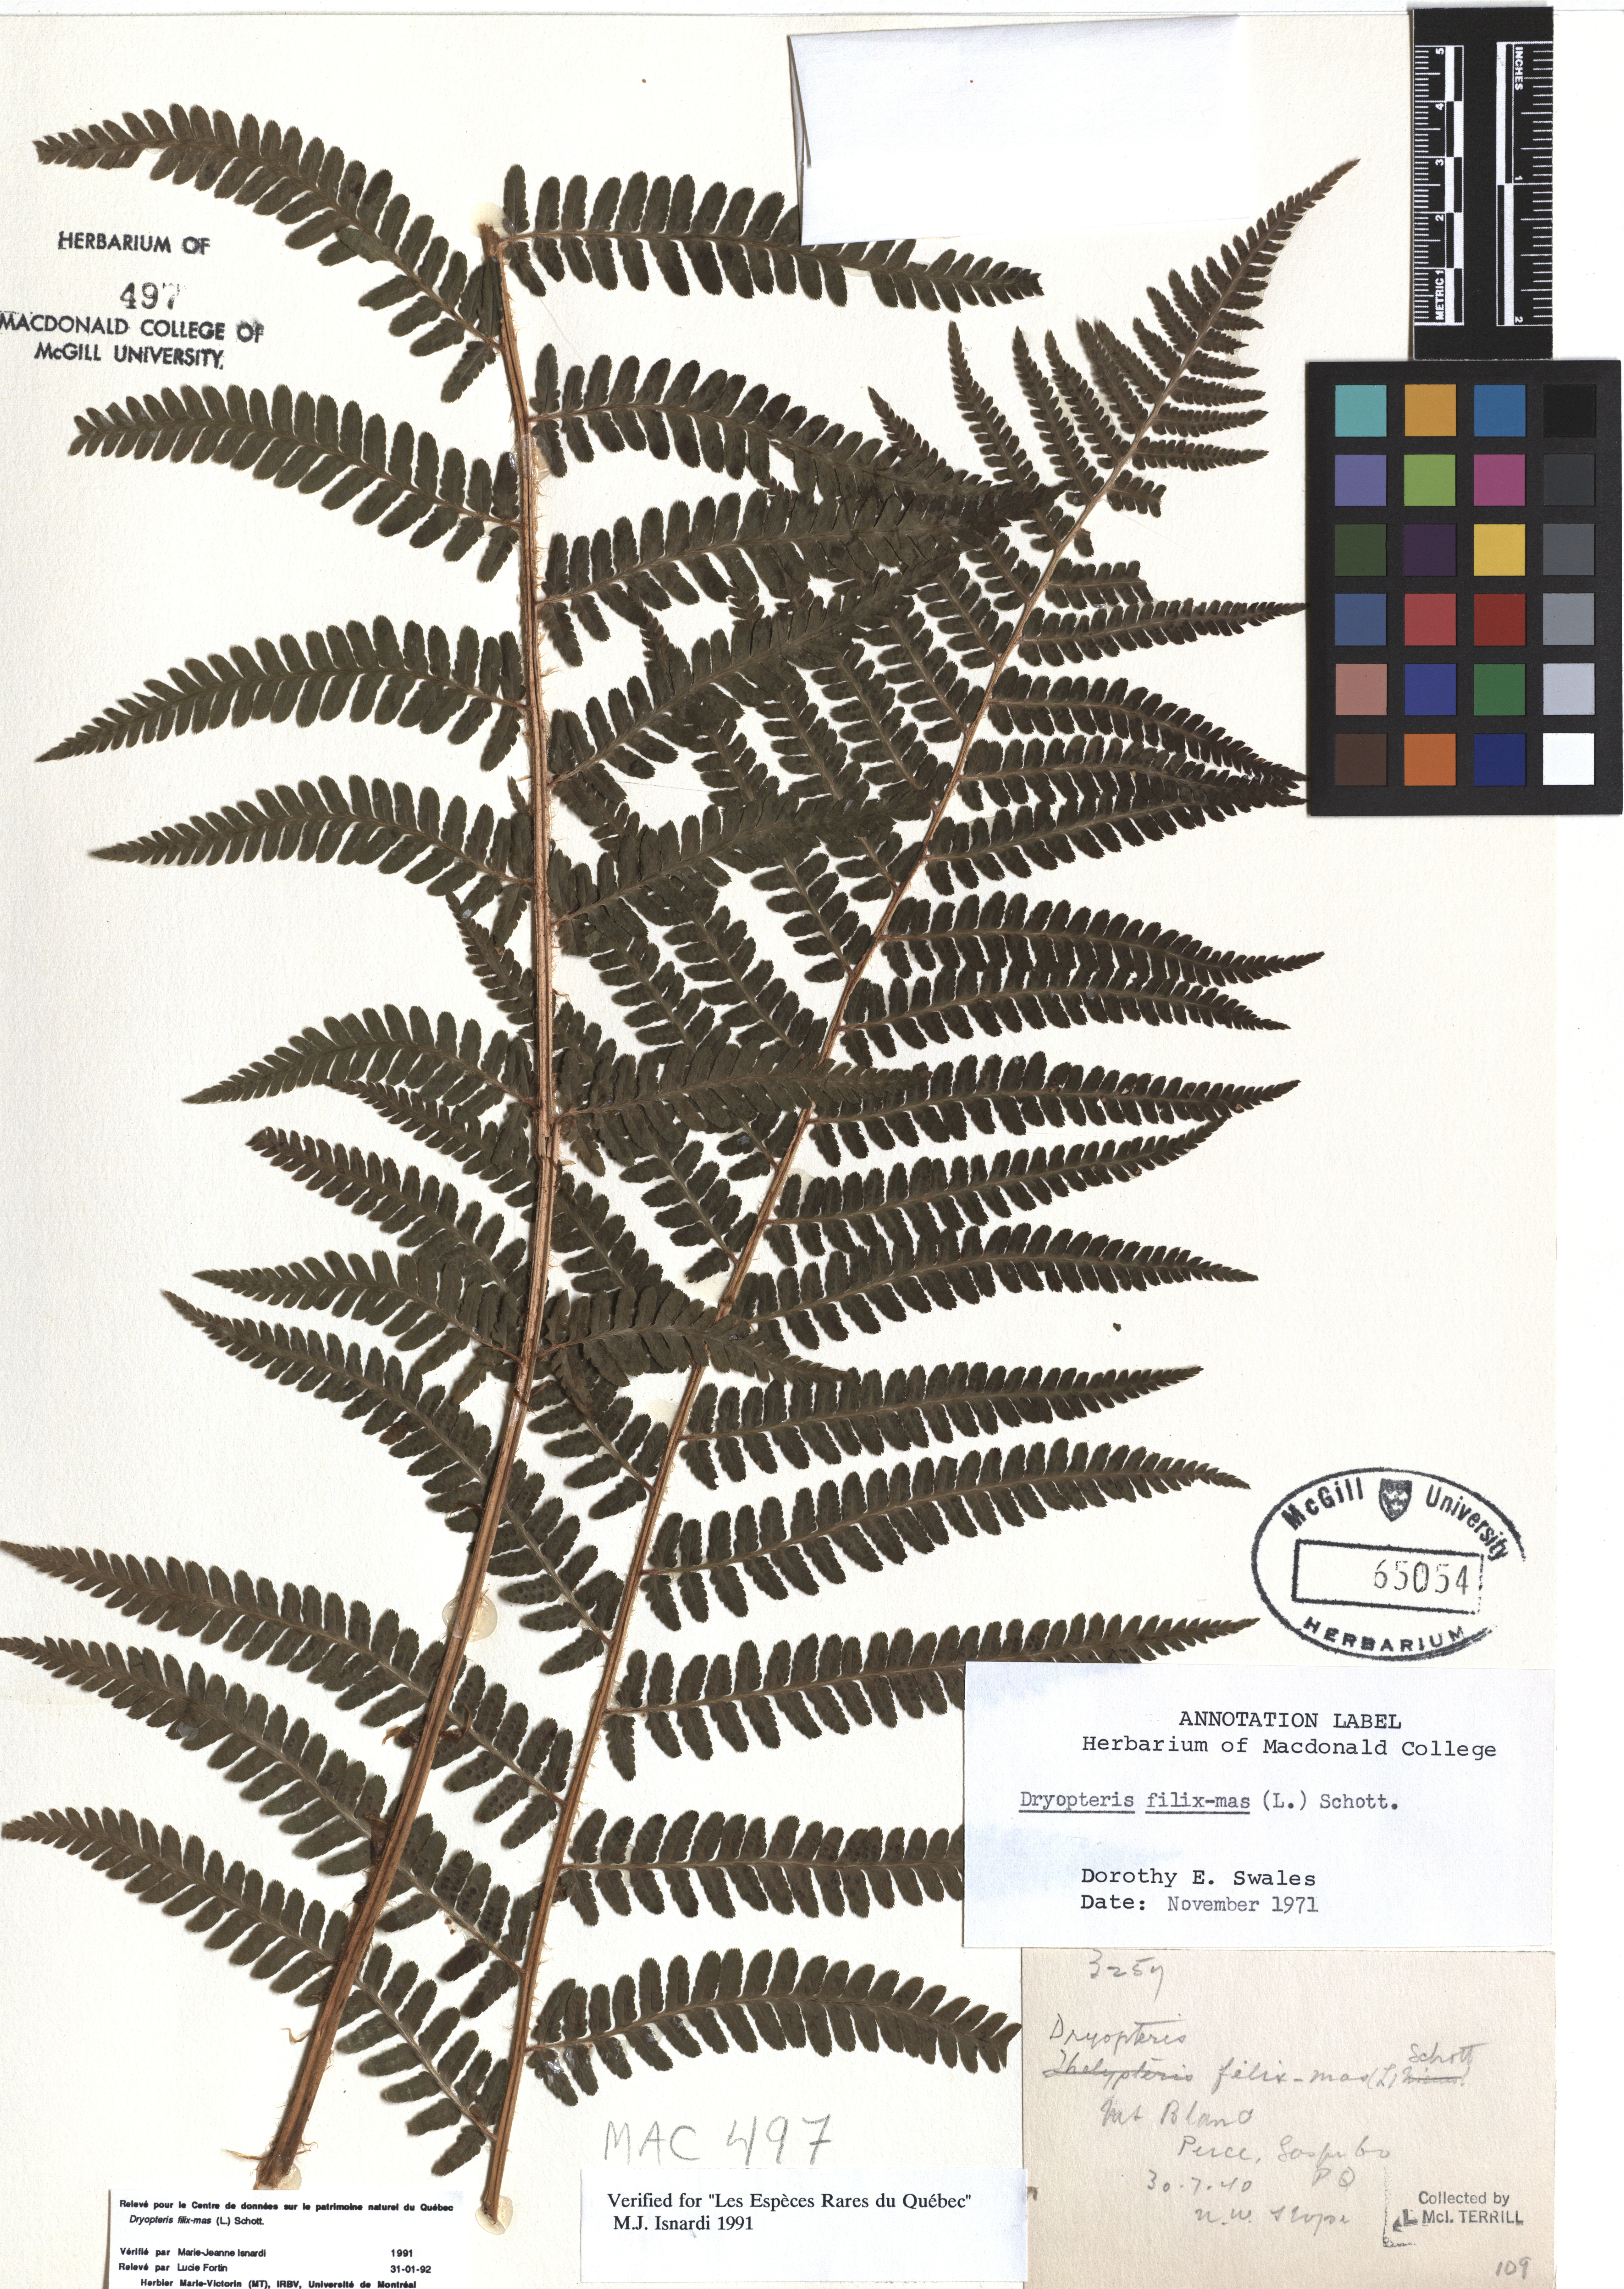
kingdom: Plantae
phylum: Tracheophyta
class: Polypodiopsida
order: Polypodiales
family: Dryopteridaceae
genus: Dryopteris
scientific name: Dryopteris filix-mas
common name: Male fern
